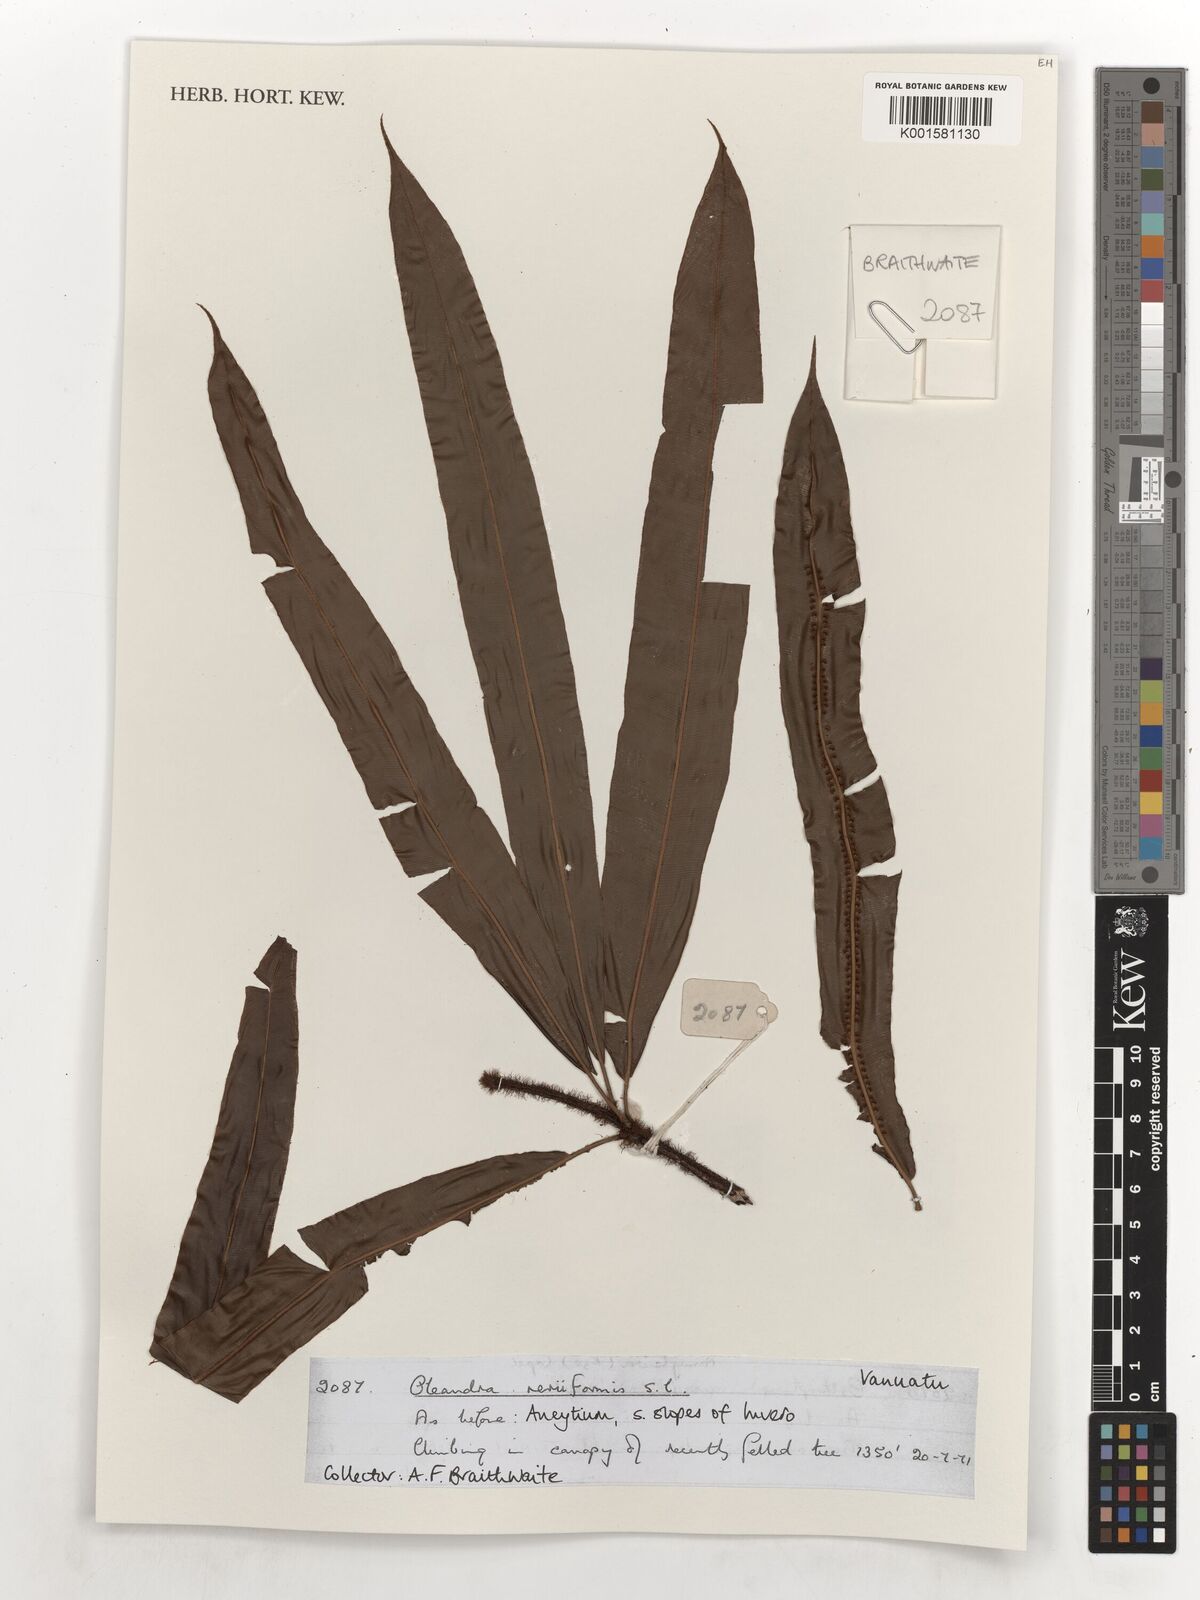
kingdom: Plantae
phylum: Tracheophyta
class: Polypodiopsida
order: Polypodiales
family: Oleandraceae
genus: Oleandra
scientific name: Oleandra musifolia
